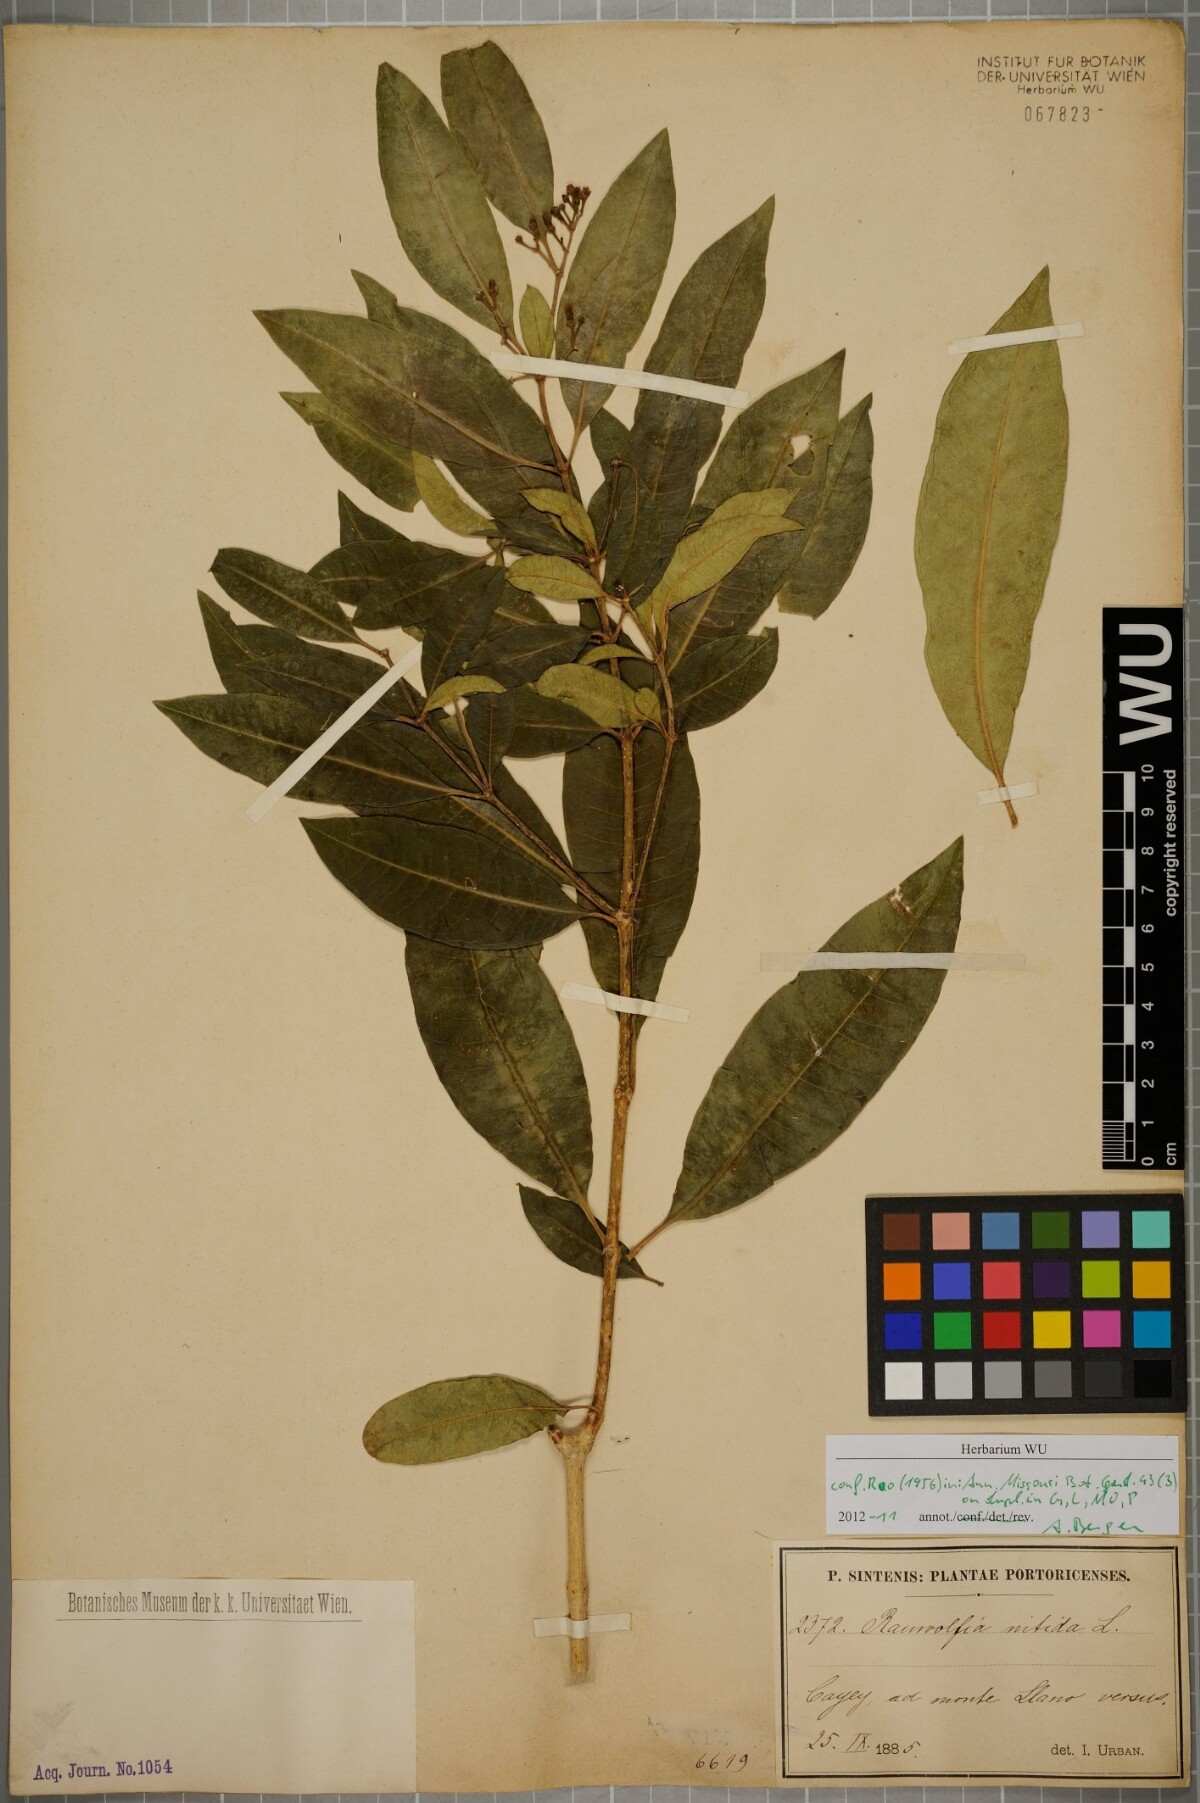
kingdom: Plantae
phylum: Tracheophyta
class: Magnoliopsida
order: Gentianales
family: Apocynaceae
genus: Rauvolfia
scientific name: Rauvolfia nitida
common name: Bitter-ash
